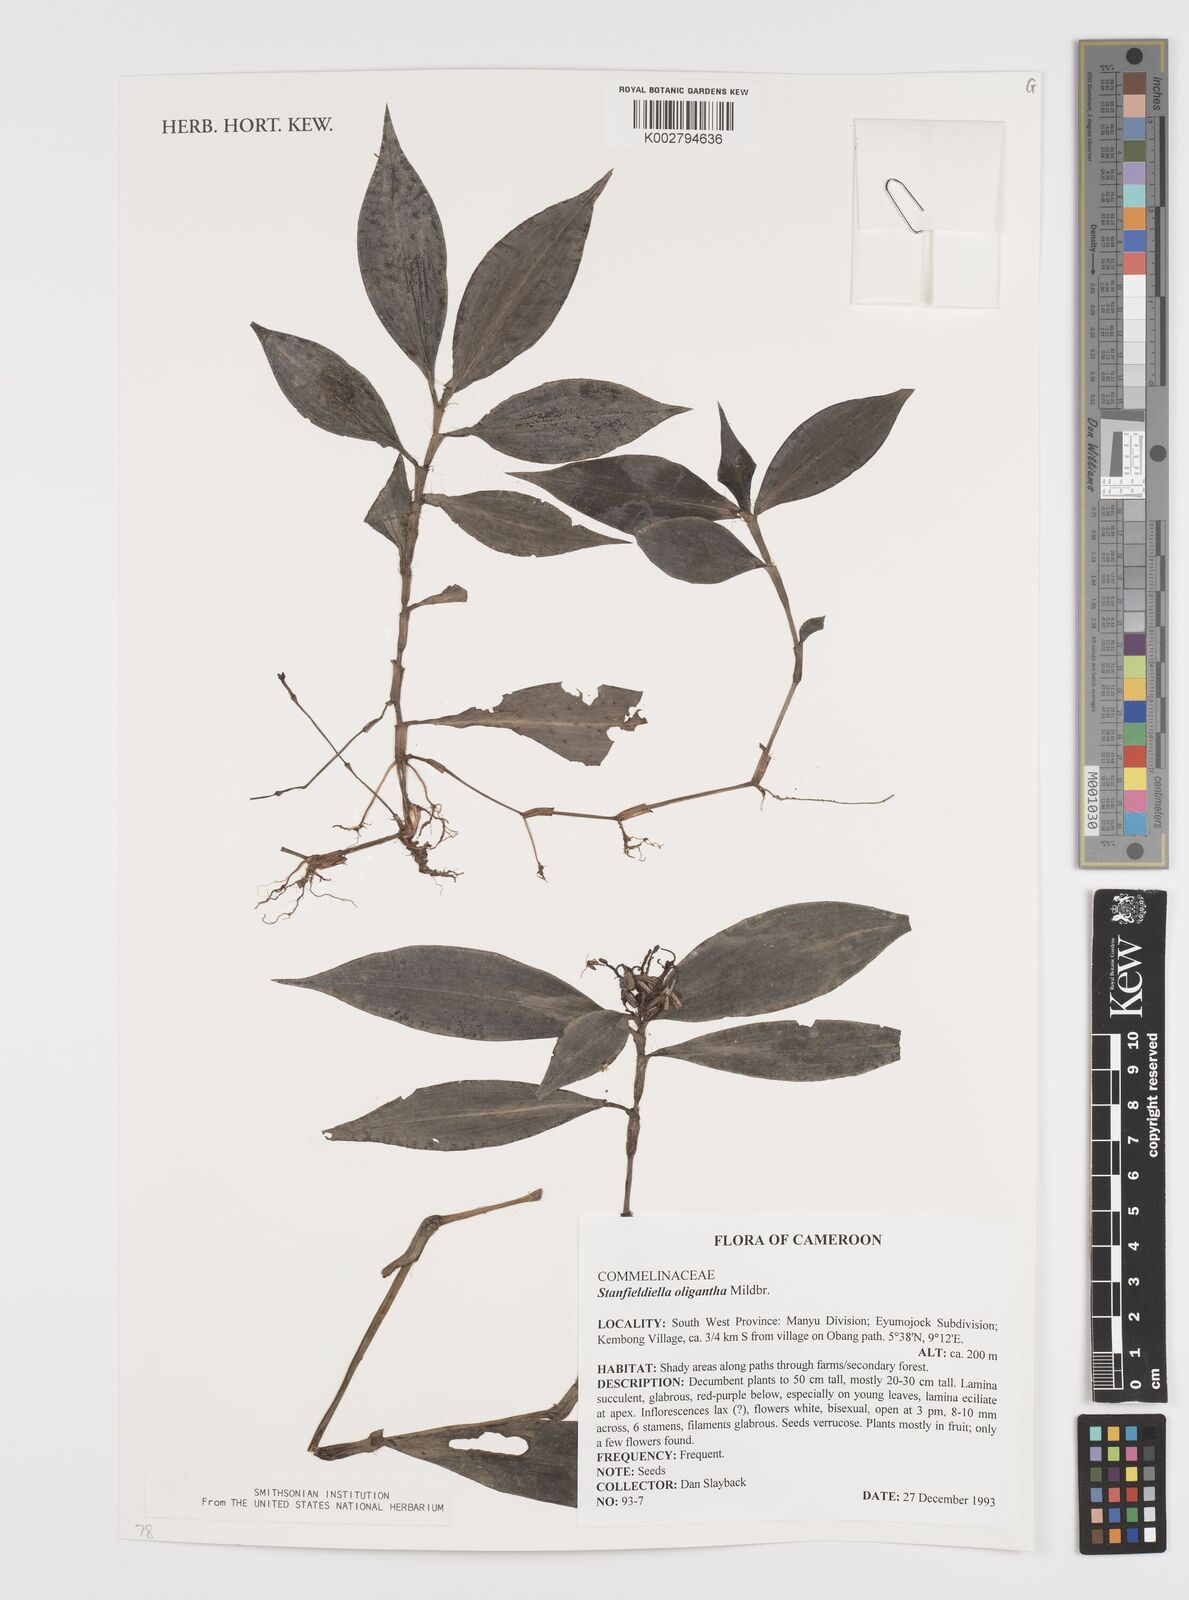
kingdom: Plantae
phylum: Tracheophyta
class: Liliopsida
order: Commelinales
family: Commelinaceae
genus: Stanfieldiella
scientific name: Stanfieldiella oligantha
